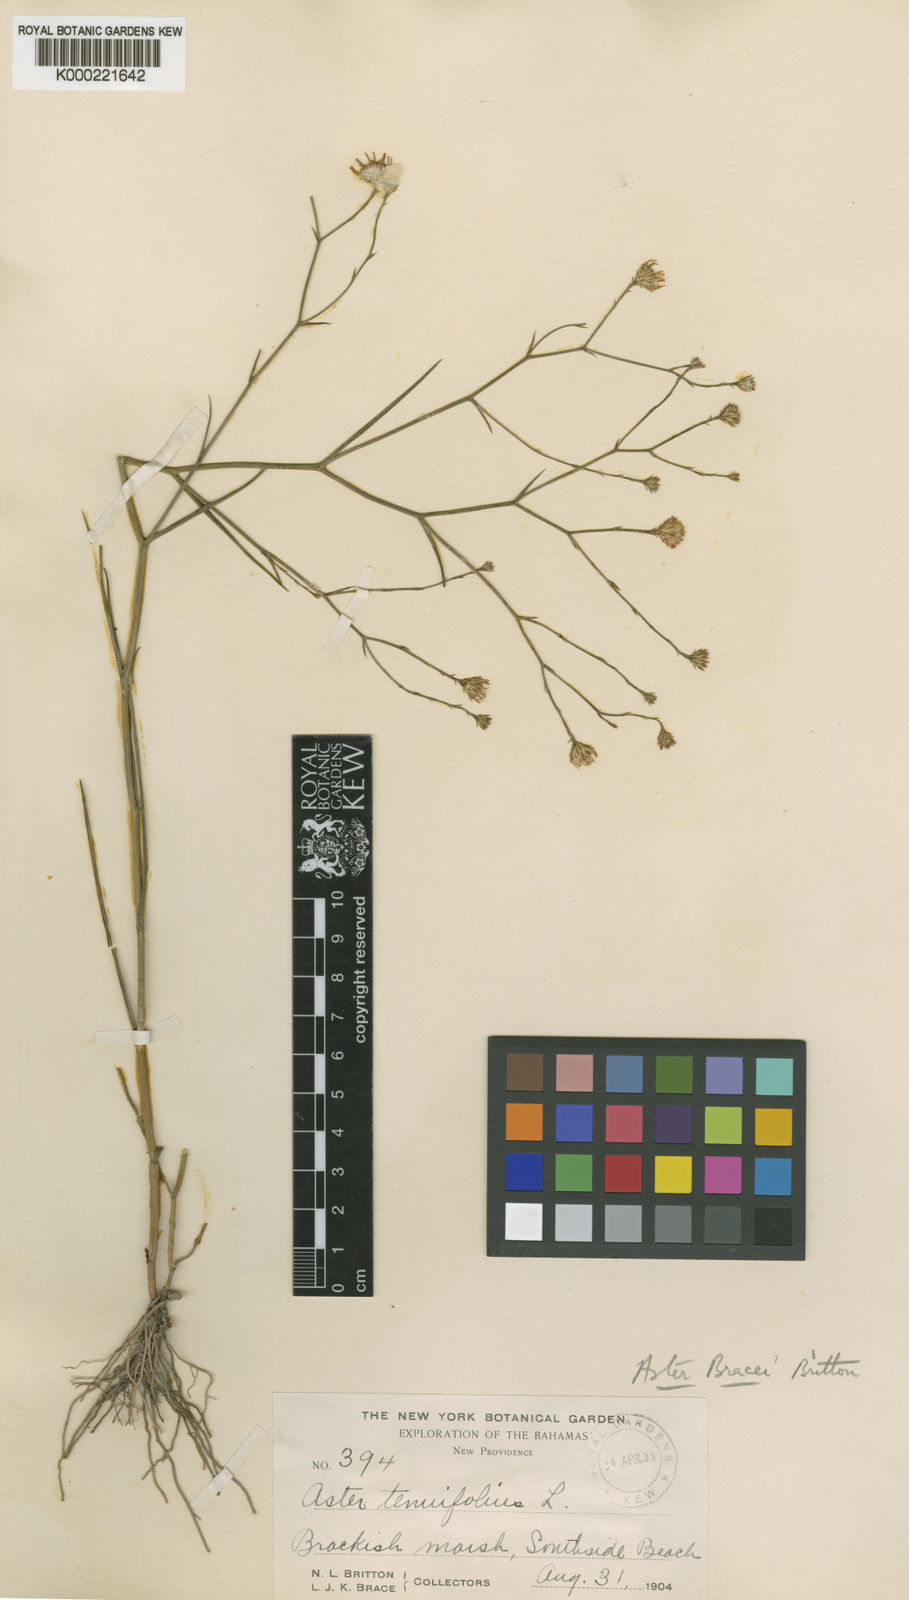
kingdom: Plantae
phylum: Tracheophyta
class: Magnoliopsida
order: Asterales
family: Asteraceae
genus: Aster
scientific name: Aster
